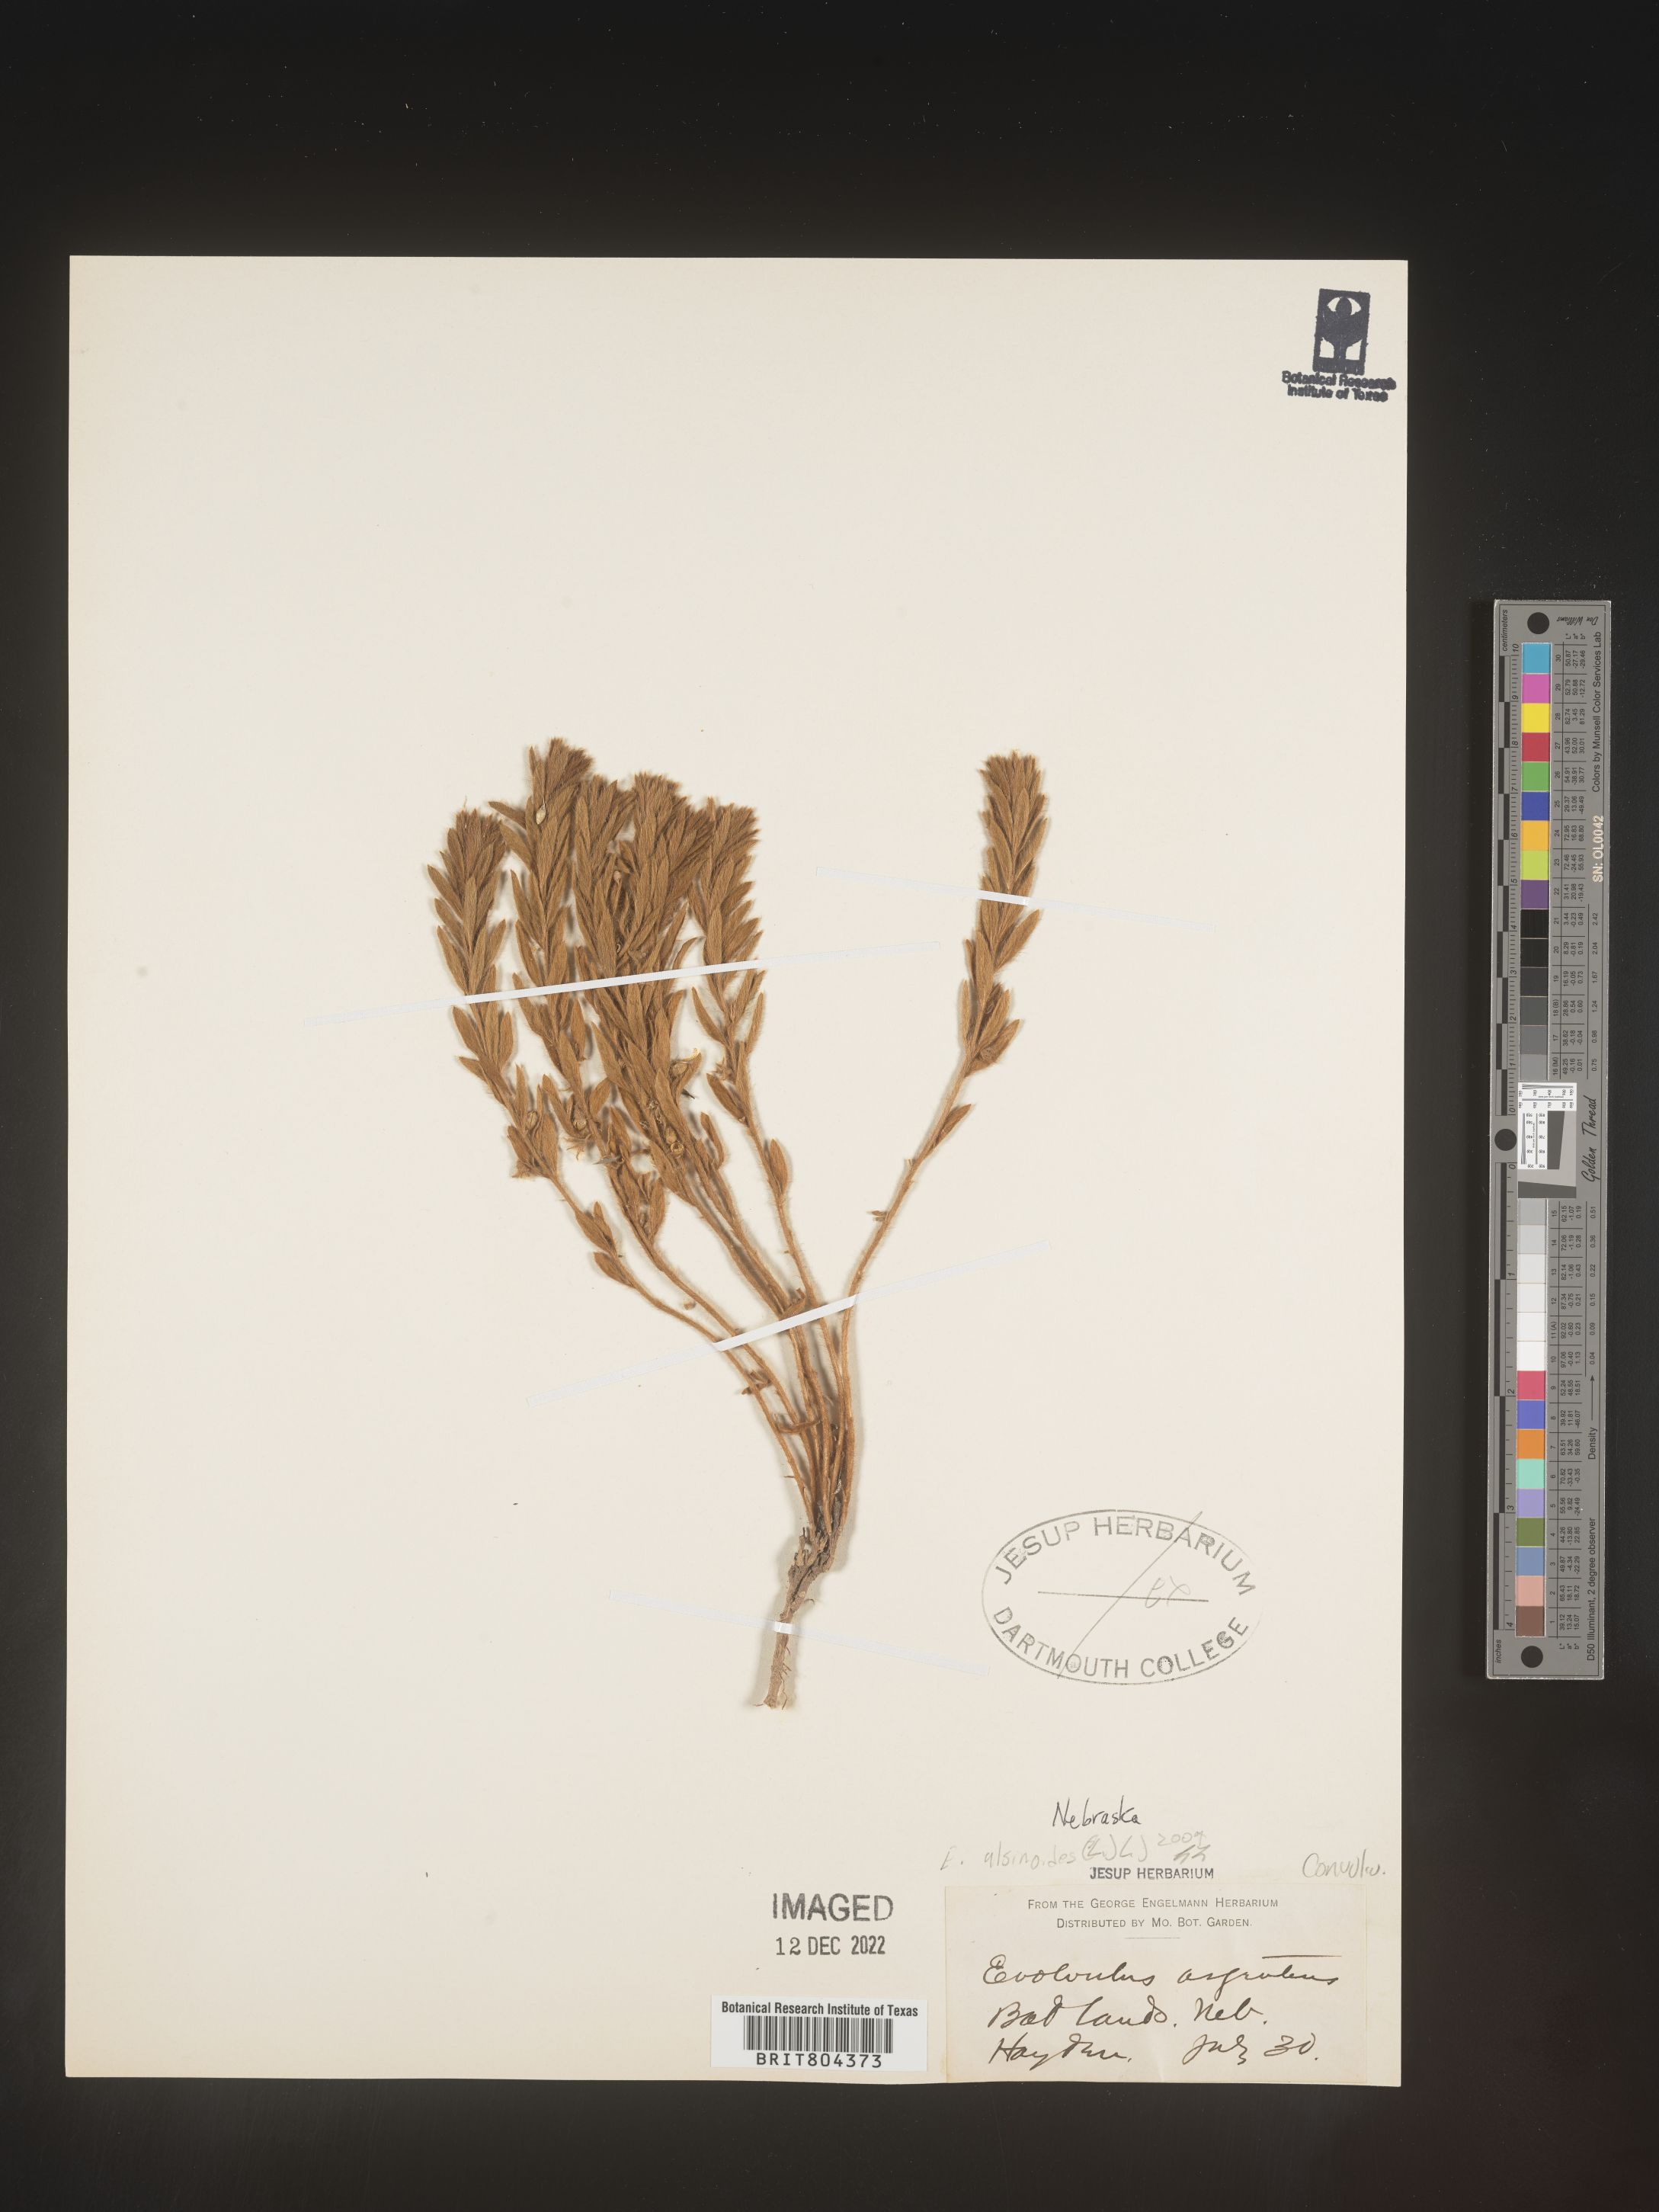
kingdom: Plantae
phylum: Tracheophyta
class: Magnoliopsida
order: Solanales
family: Convolvulaceae
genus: Evolvulus
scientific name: Evolvulus
